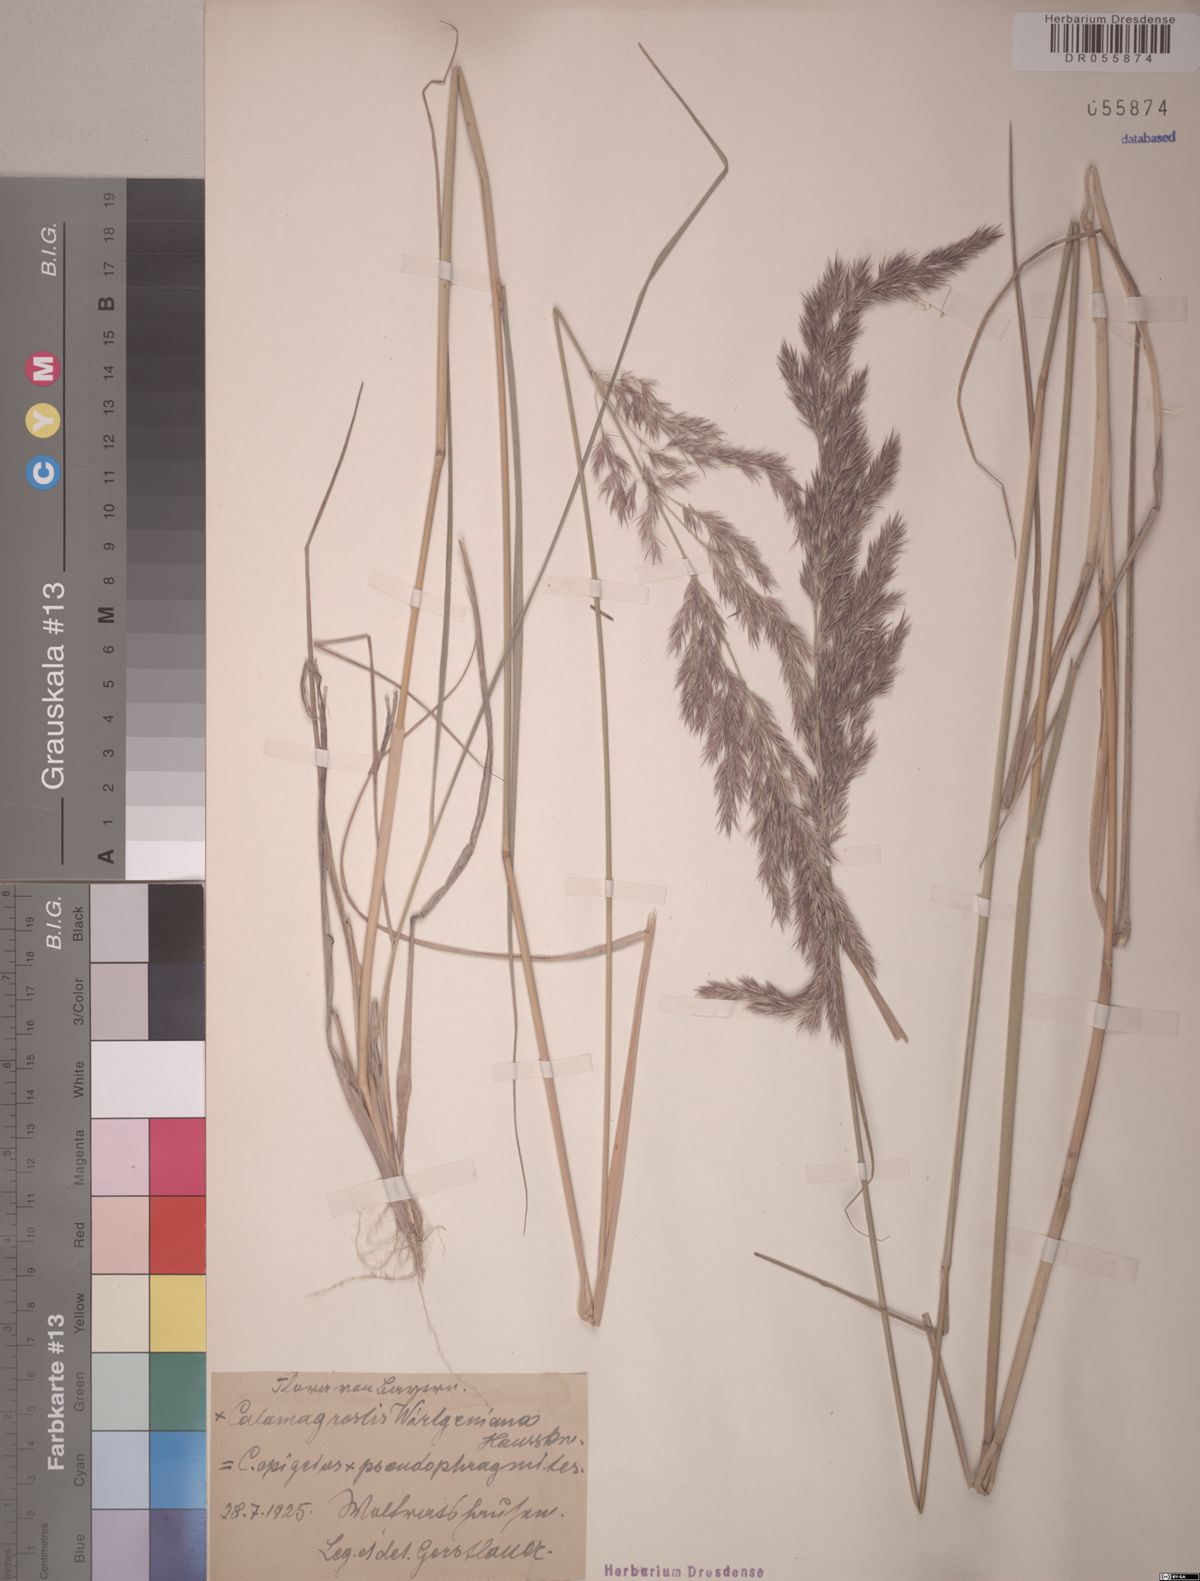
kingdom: Plantae
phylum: Tracheophyta
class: Liliopsida
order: Poales
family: Poaceae
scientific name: Poaceae
